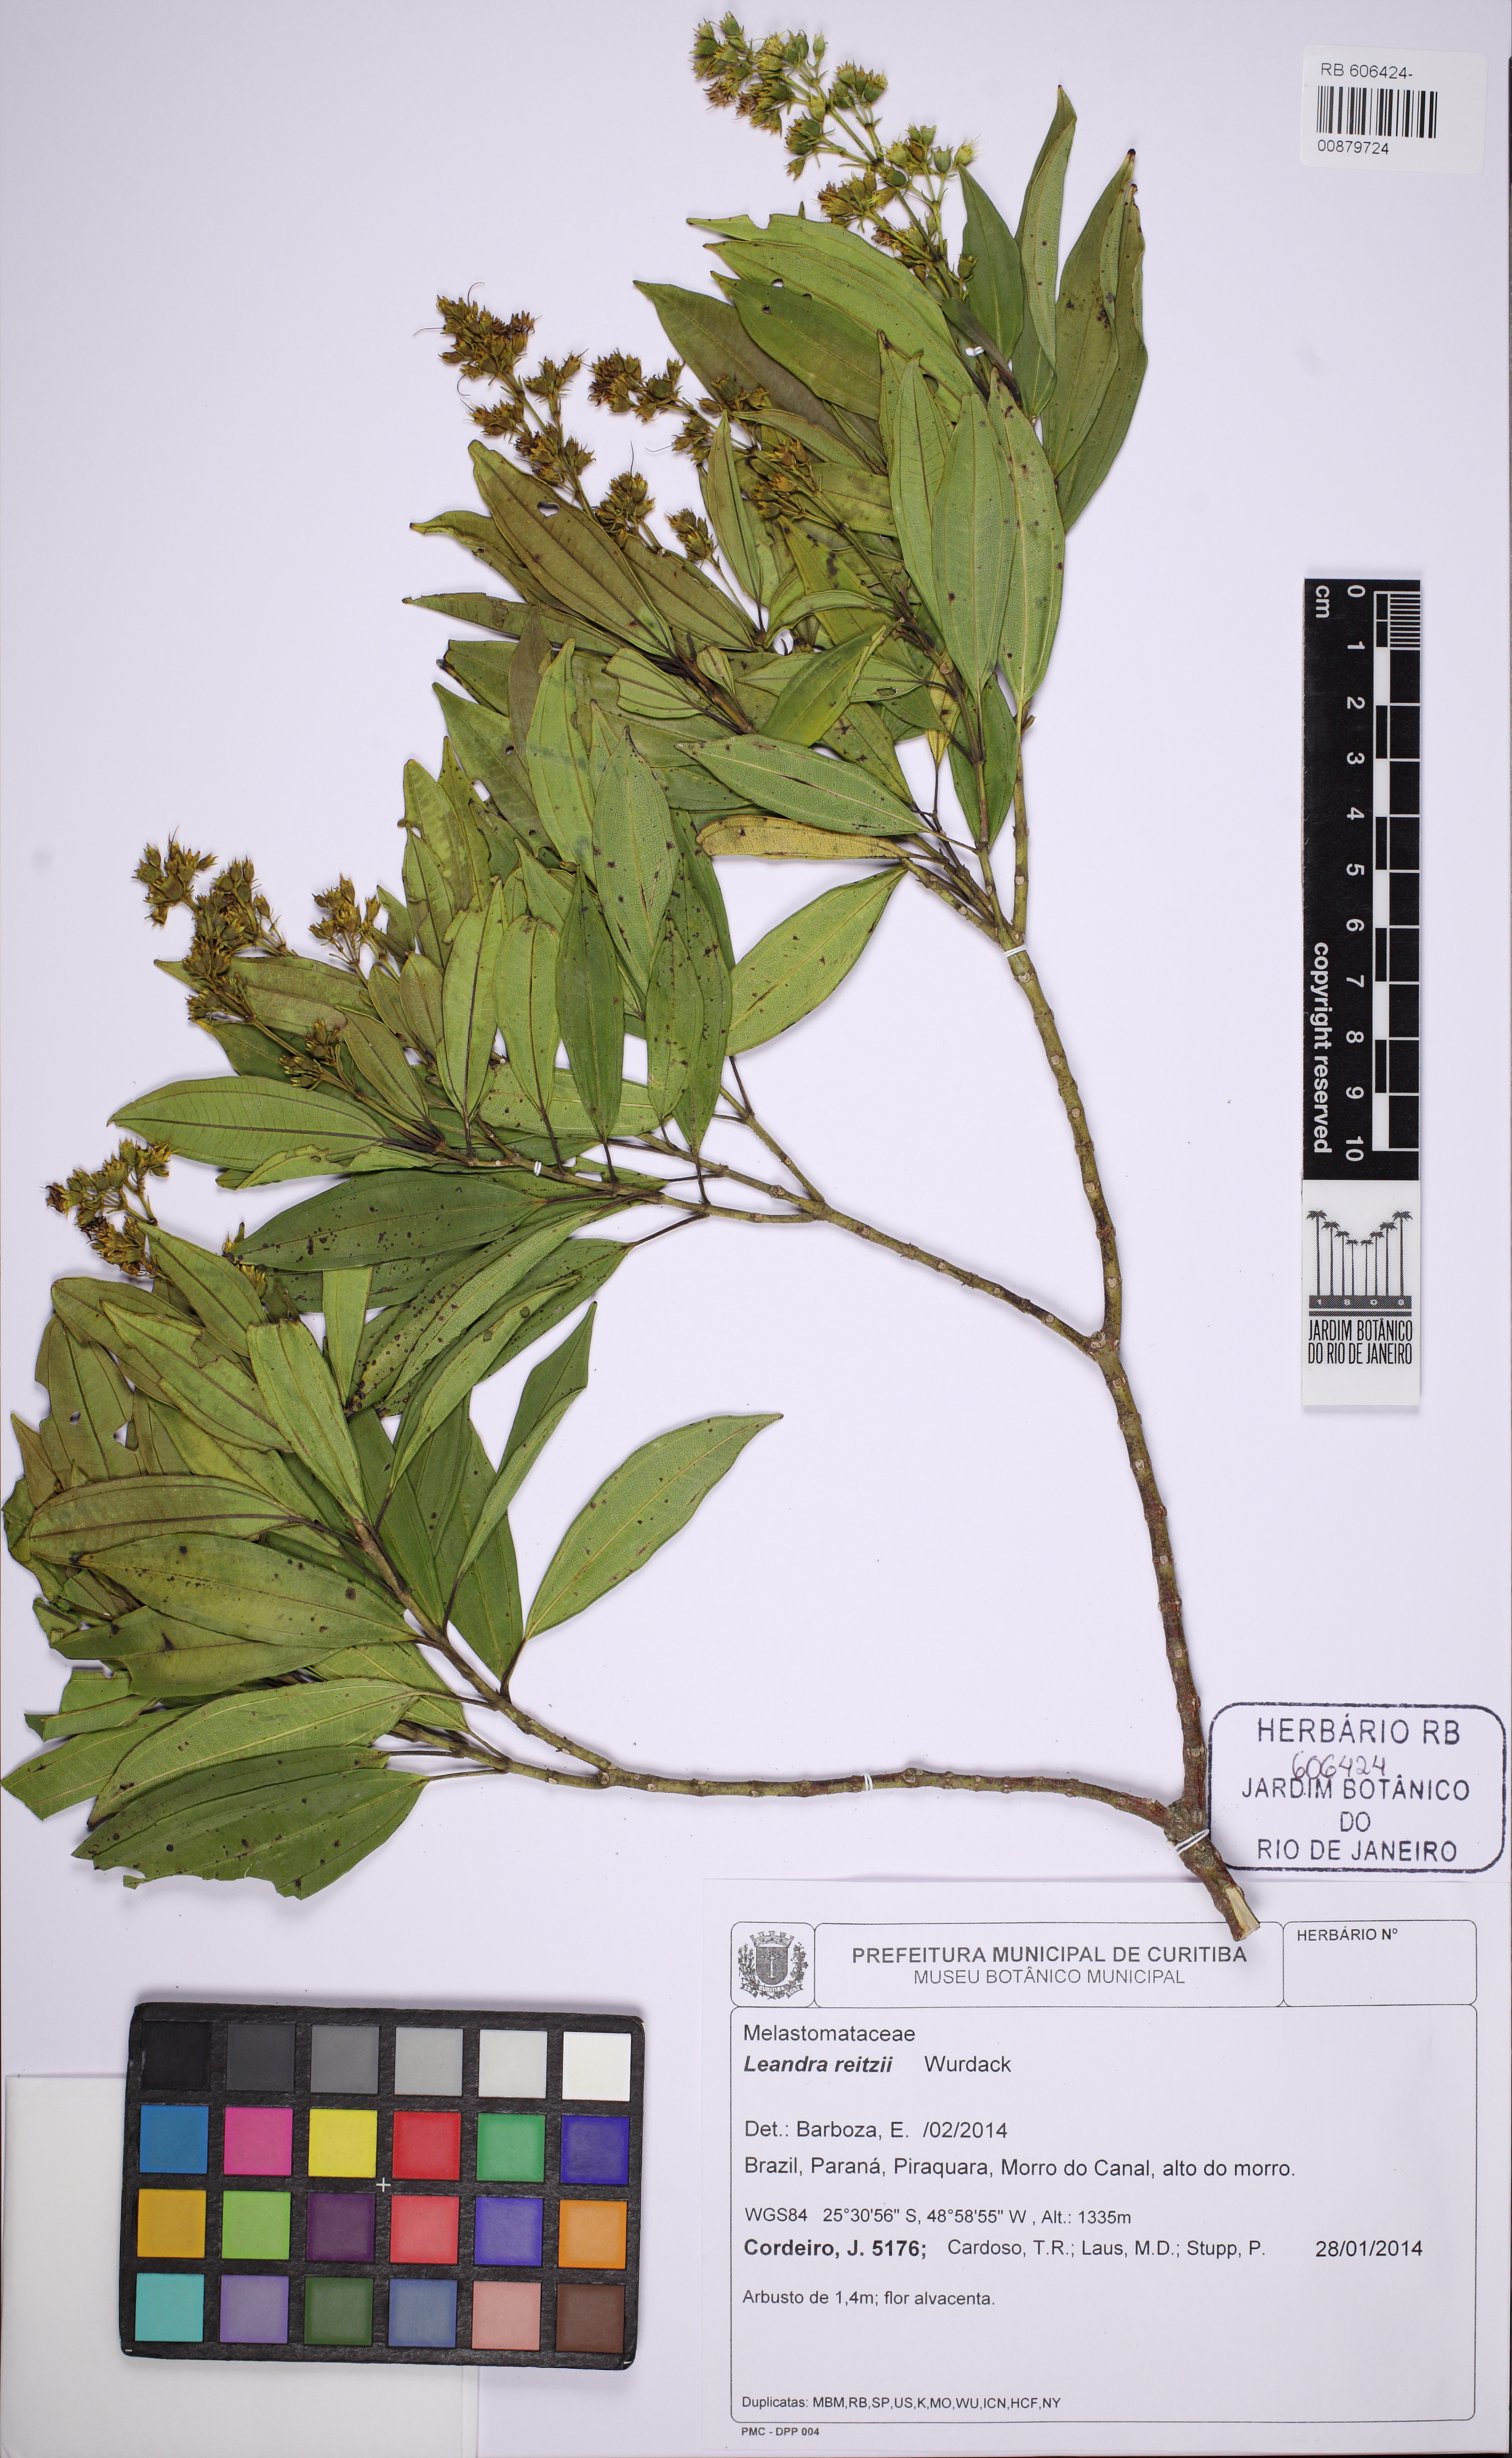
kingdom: Plantae
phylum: Tracheophyta
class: Magnoliopsida
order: Myrtales
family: Melastomataceae
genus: Miconia
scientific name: Miconia reitzii
